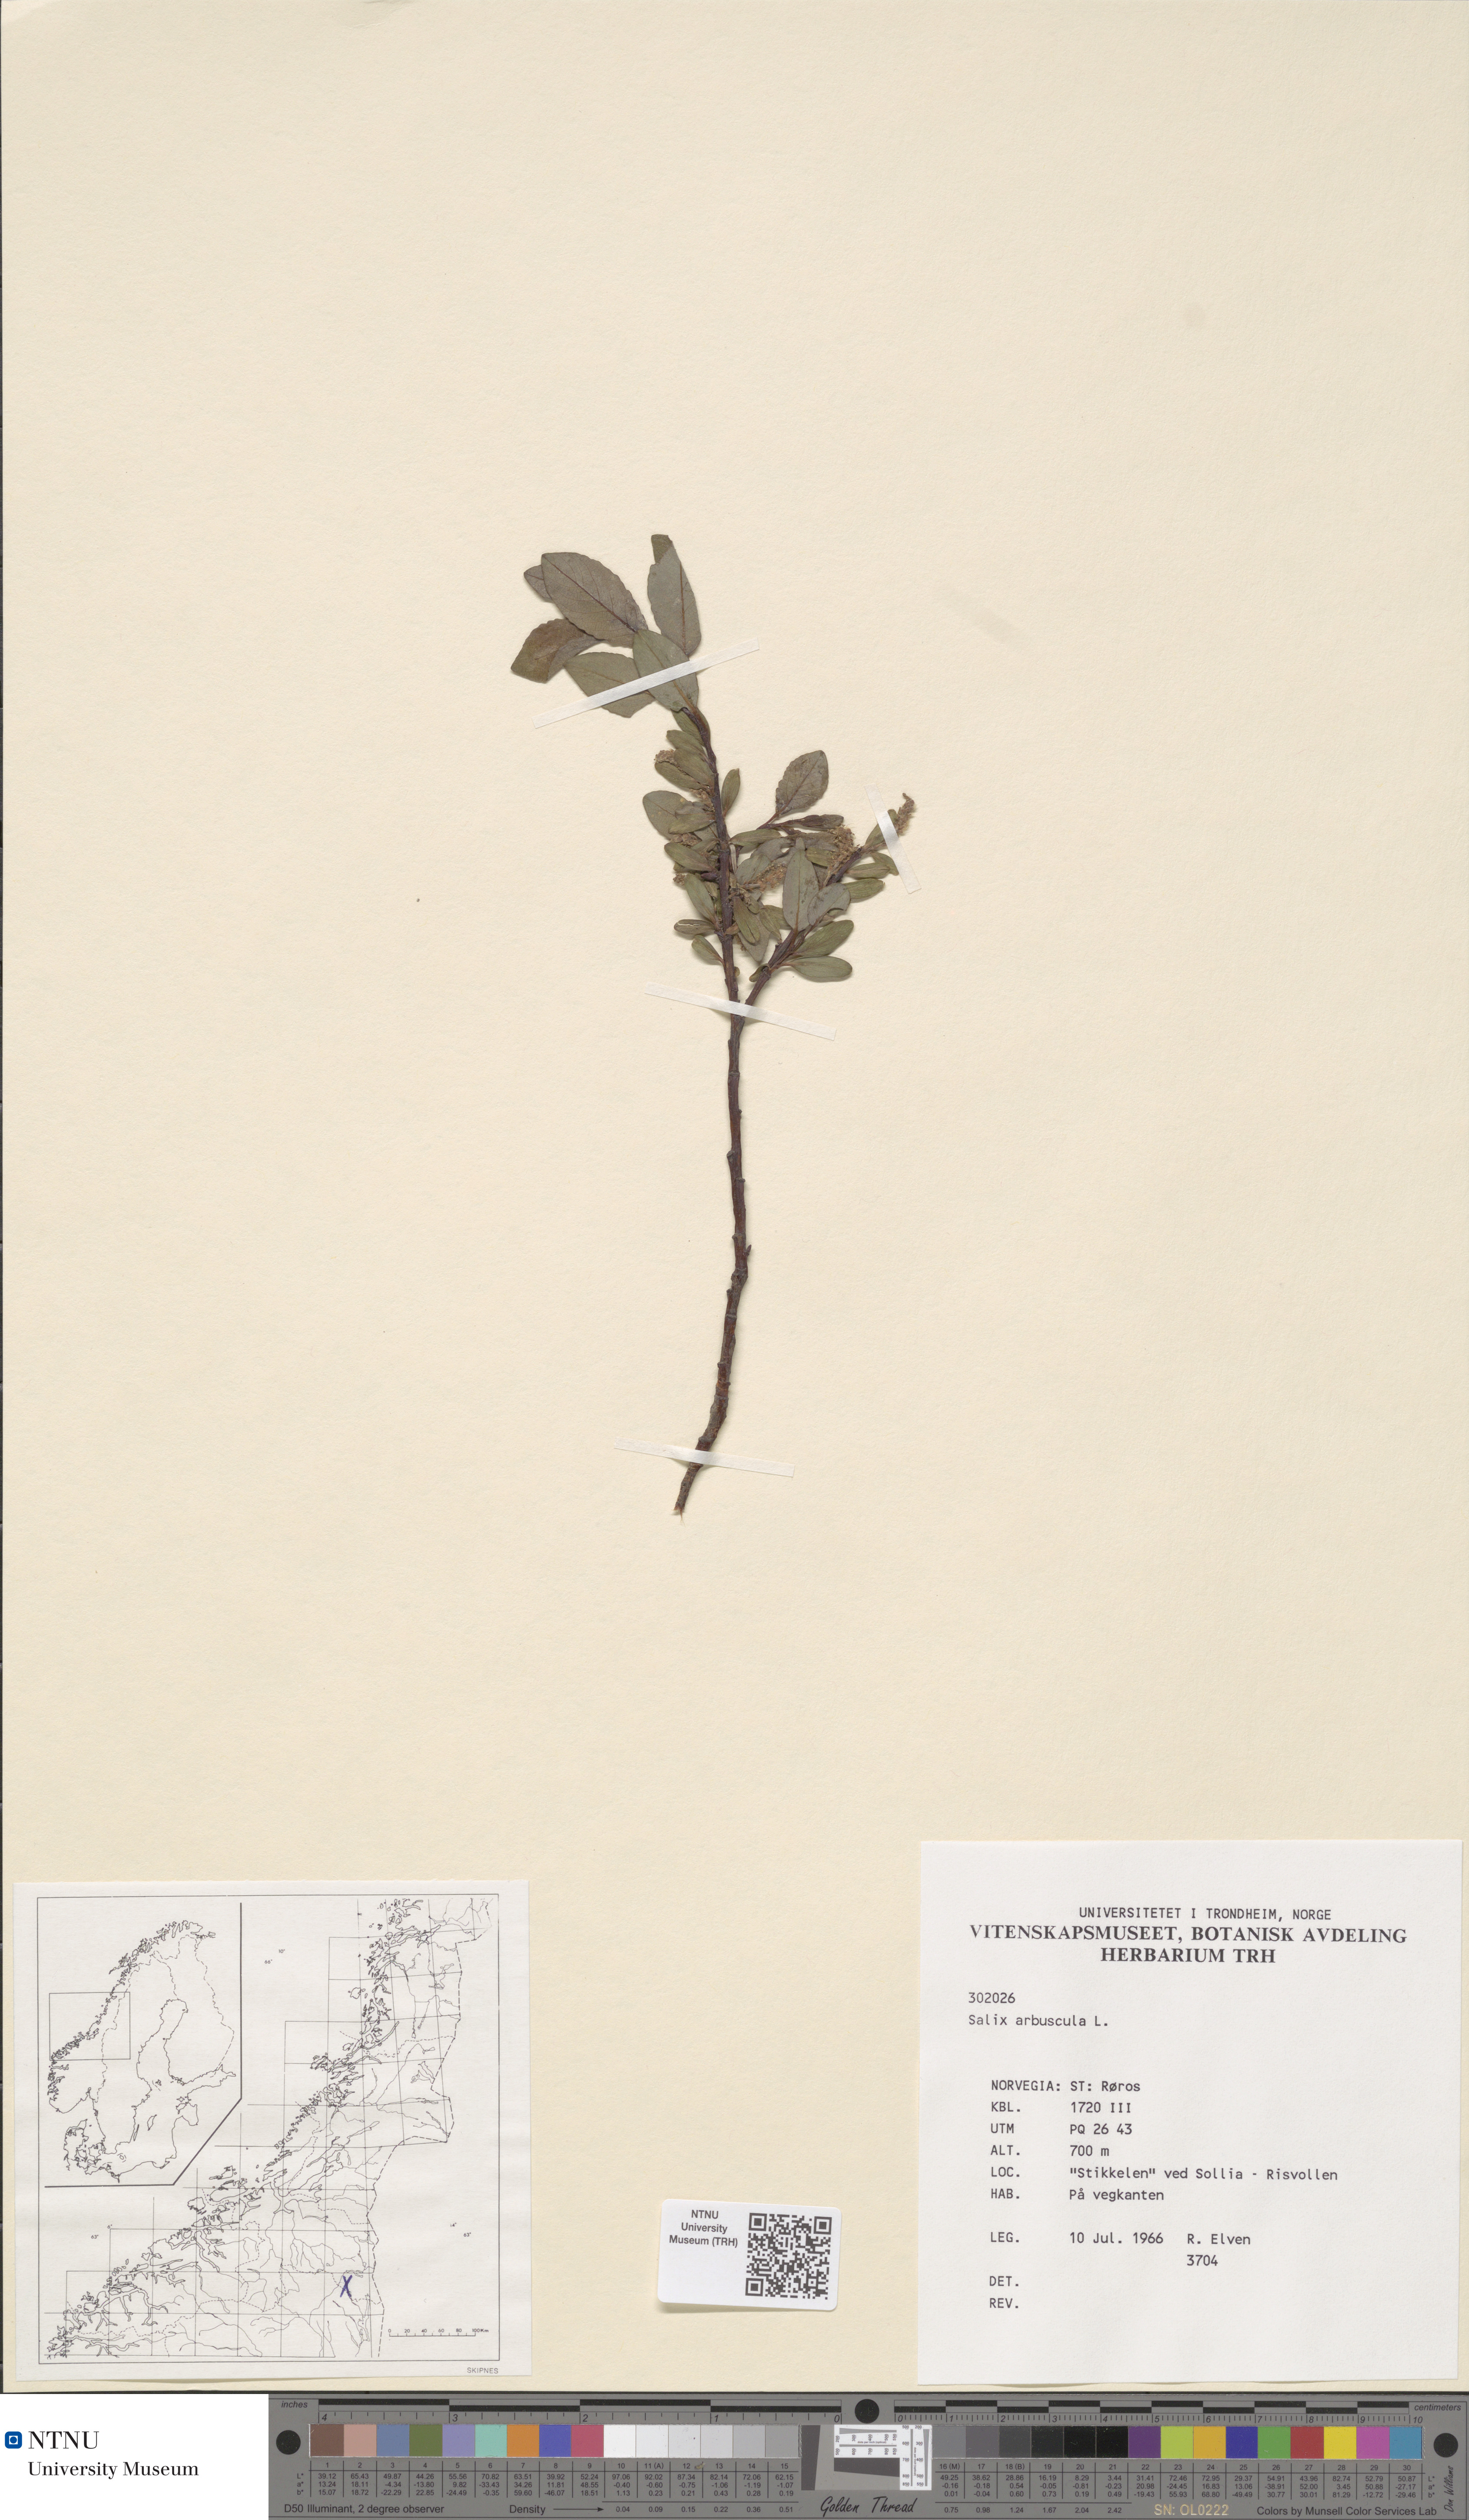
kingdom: Plantae
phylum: Tracheophyta
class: Magnoliopsida
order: Malpighiales
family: Salicaceae
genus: Salix
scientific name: Salix arbuscula
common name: Mountain willow
